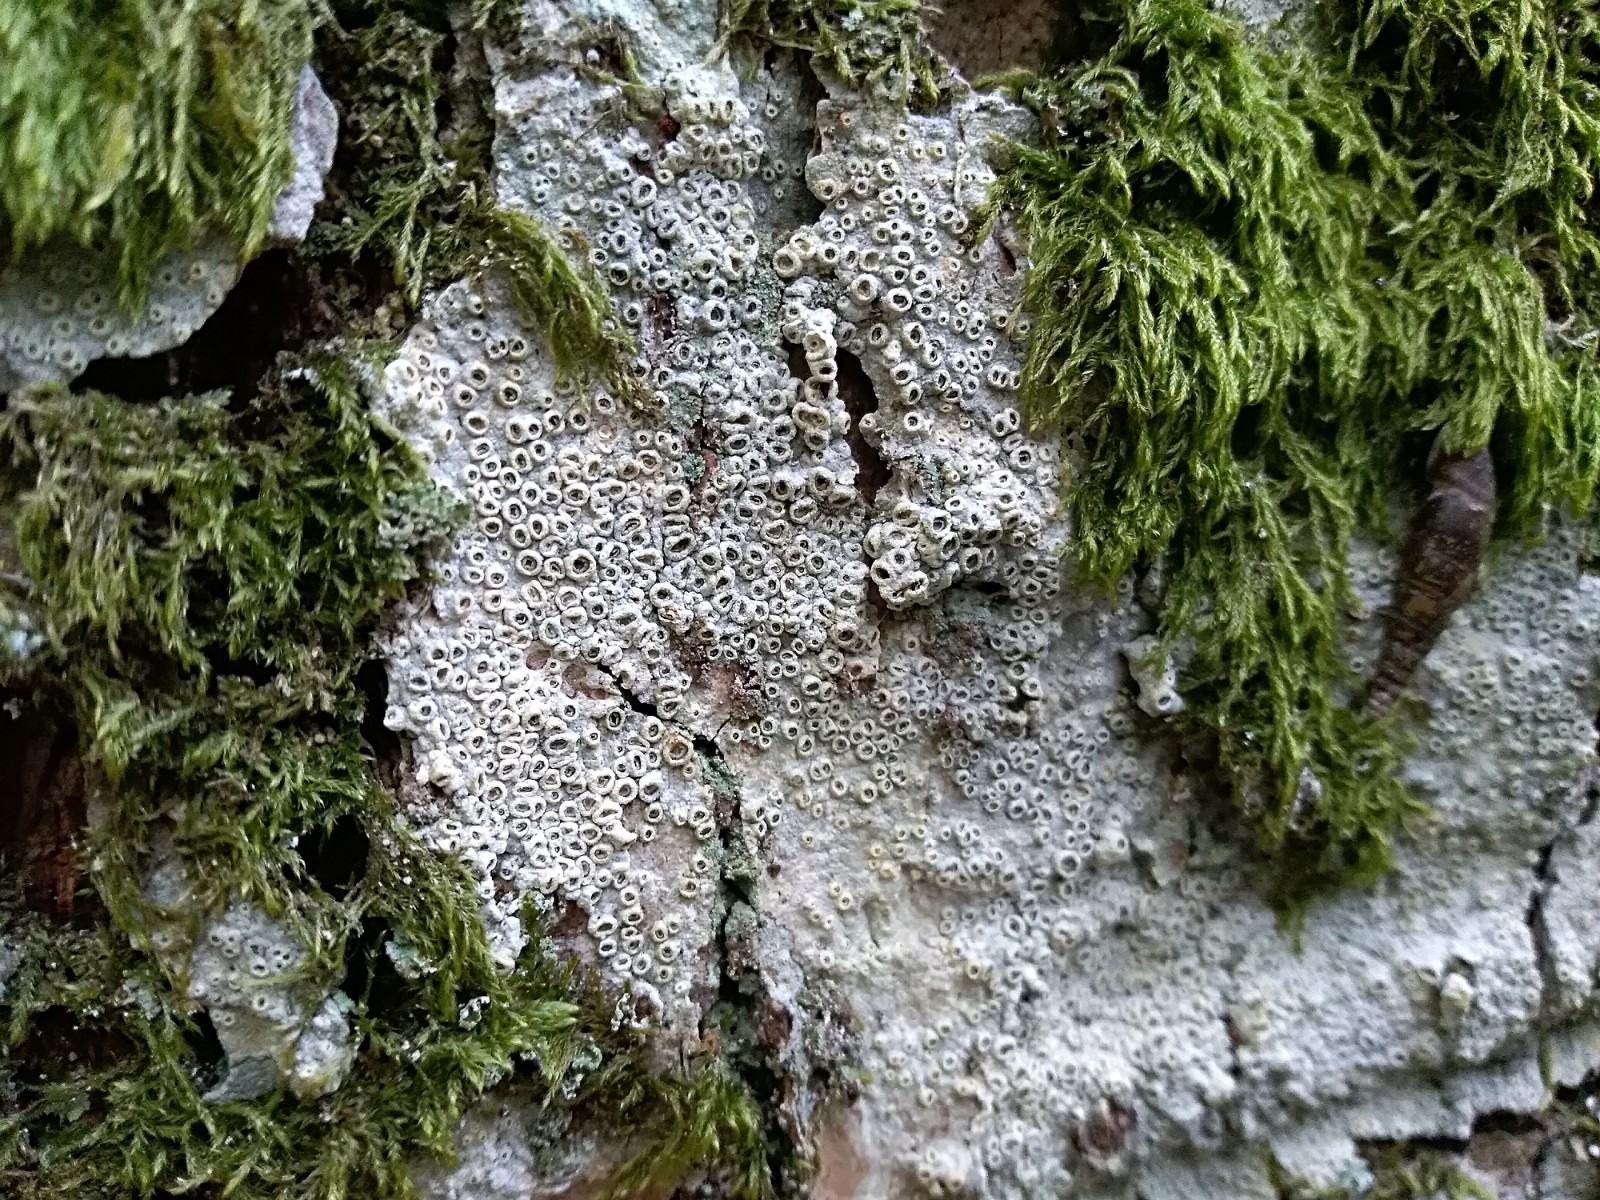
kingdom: Fungi
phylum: Ascomycota
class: Lecanoromycetes
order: Ostropales
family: Graphidaceae
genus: Thelotrema
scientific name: Thelotrema lepadinum
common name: almindelig slørkantlav
